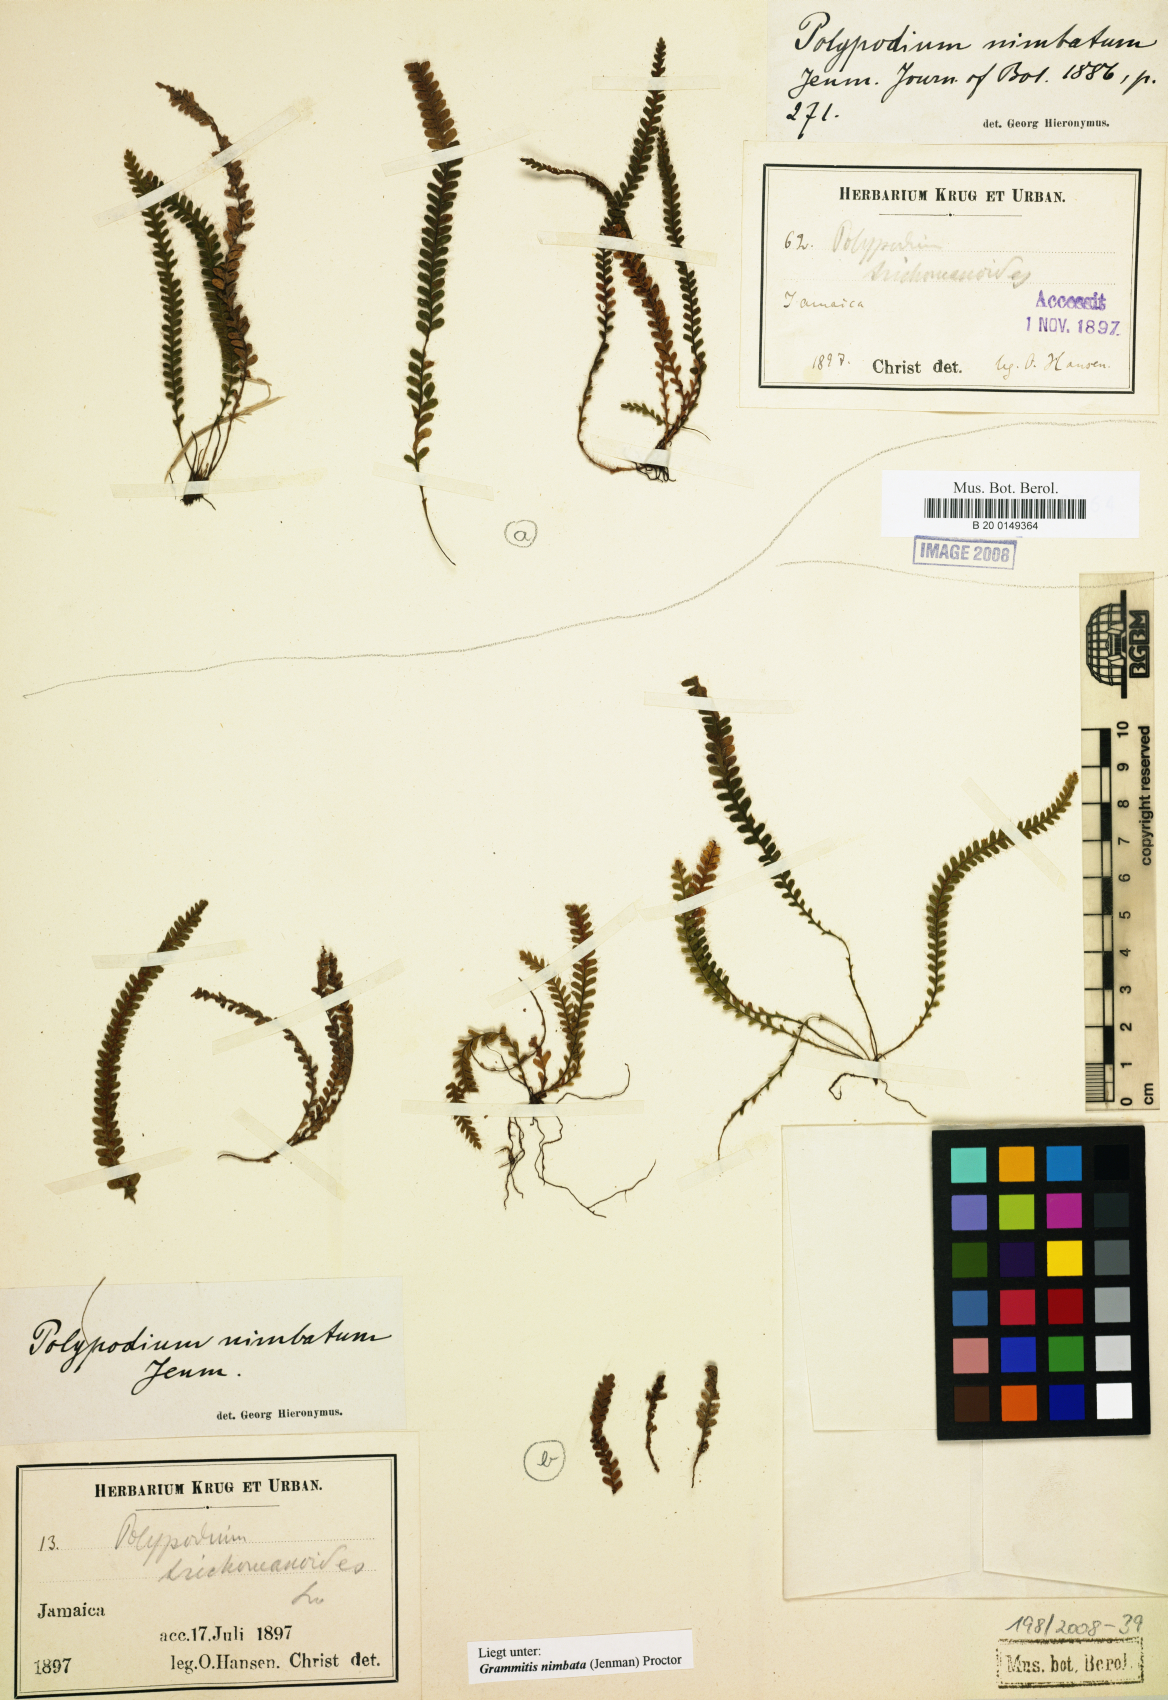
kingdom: Plantae
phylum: Tracheophyta
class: Polypodiopsida
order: Polypodiales
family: Polypodiaceae
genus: Moranopteris
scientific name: Moranopteris basiattenuata
